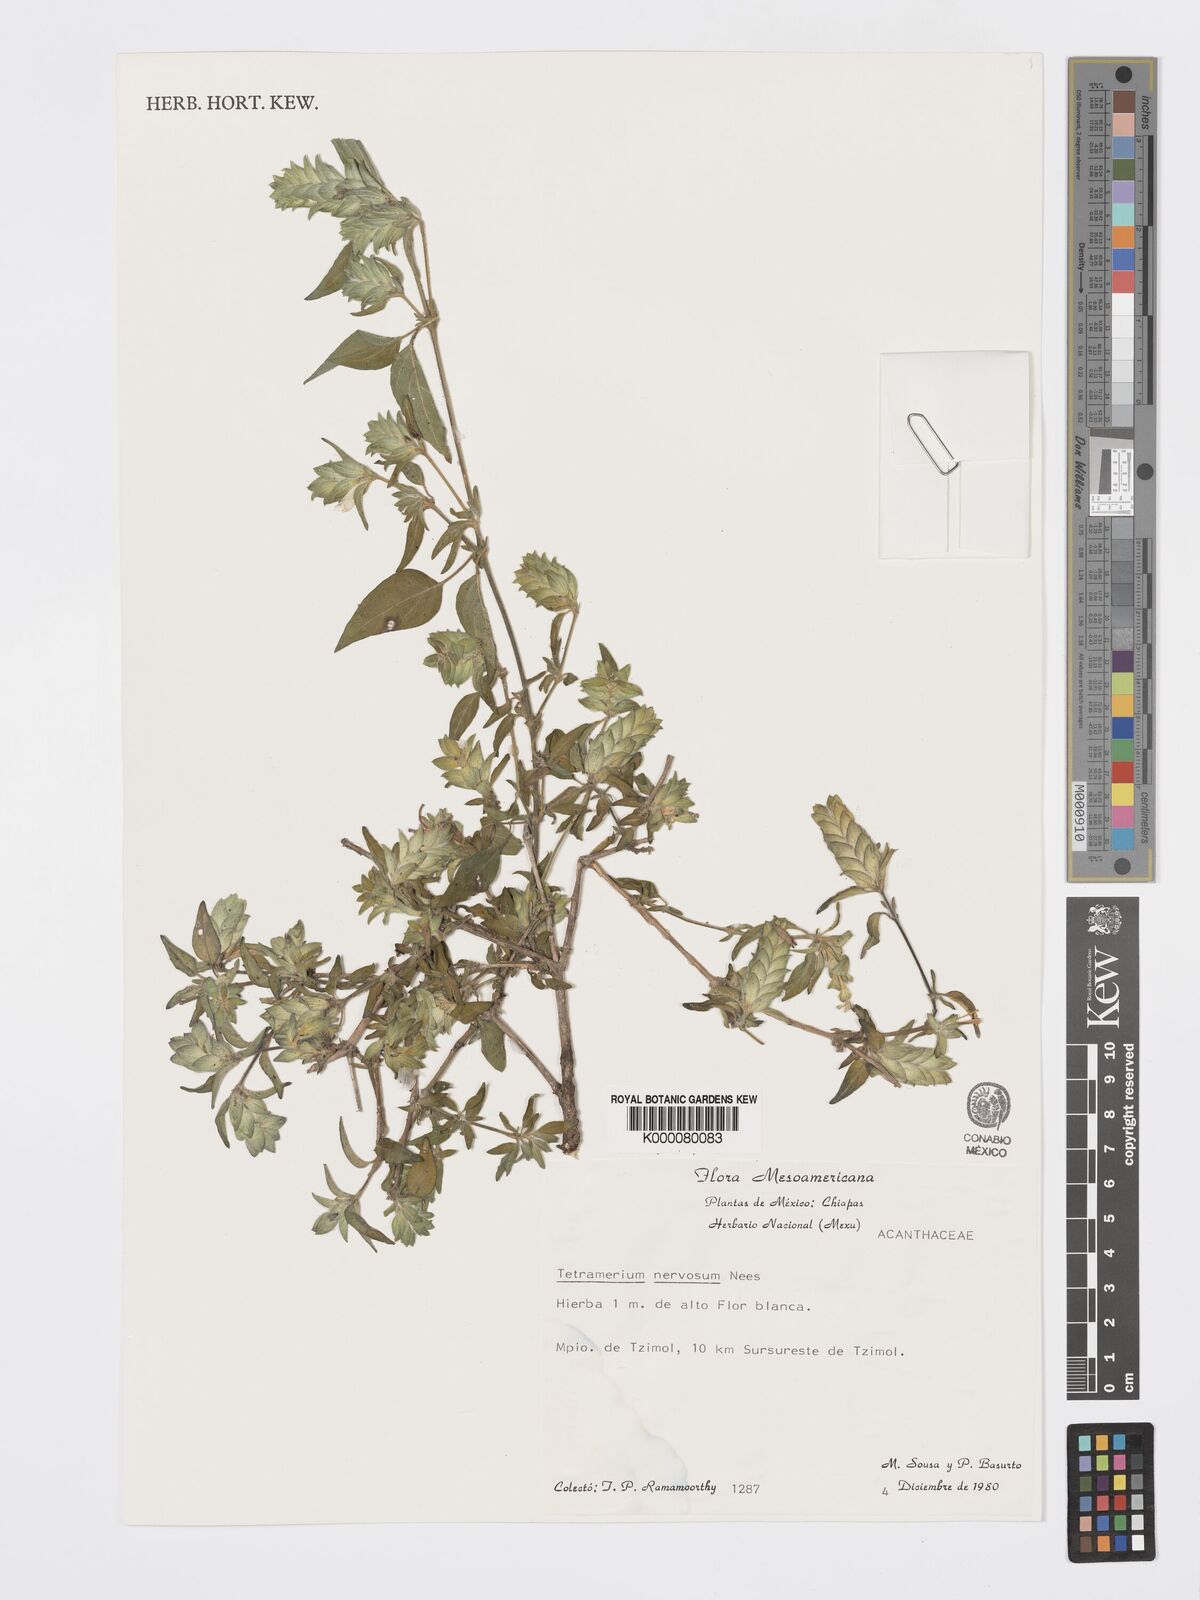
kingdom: Plantae
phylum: Tracheophyta
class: Magnoliopsida
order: Lamiales
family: Acanthaceae
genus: Tetramerium
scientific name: Tetramerium nervosum
